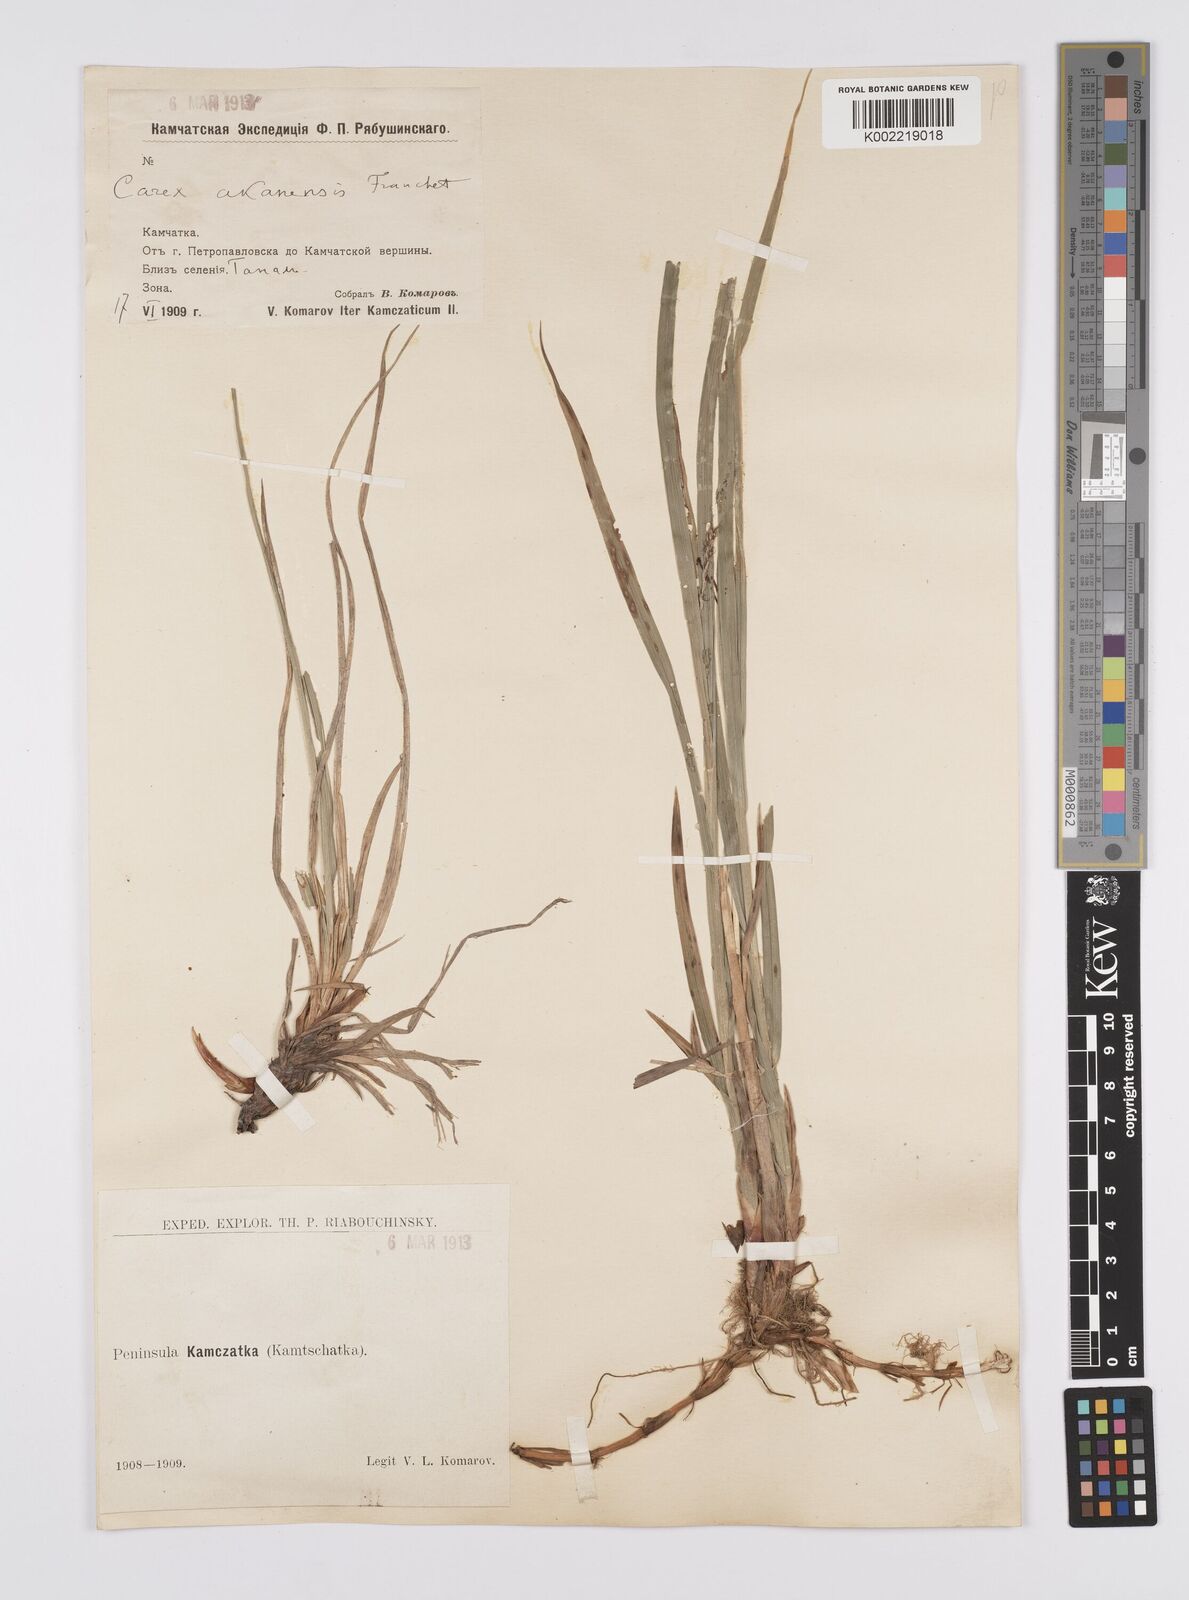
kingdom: Plantae
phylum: Tracheophyta
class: Liliopsida
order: Poales
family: Cyperaceae
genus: Carex
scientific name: Carex drymophila
